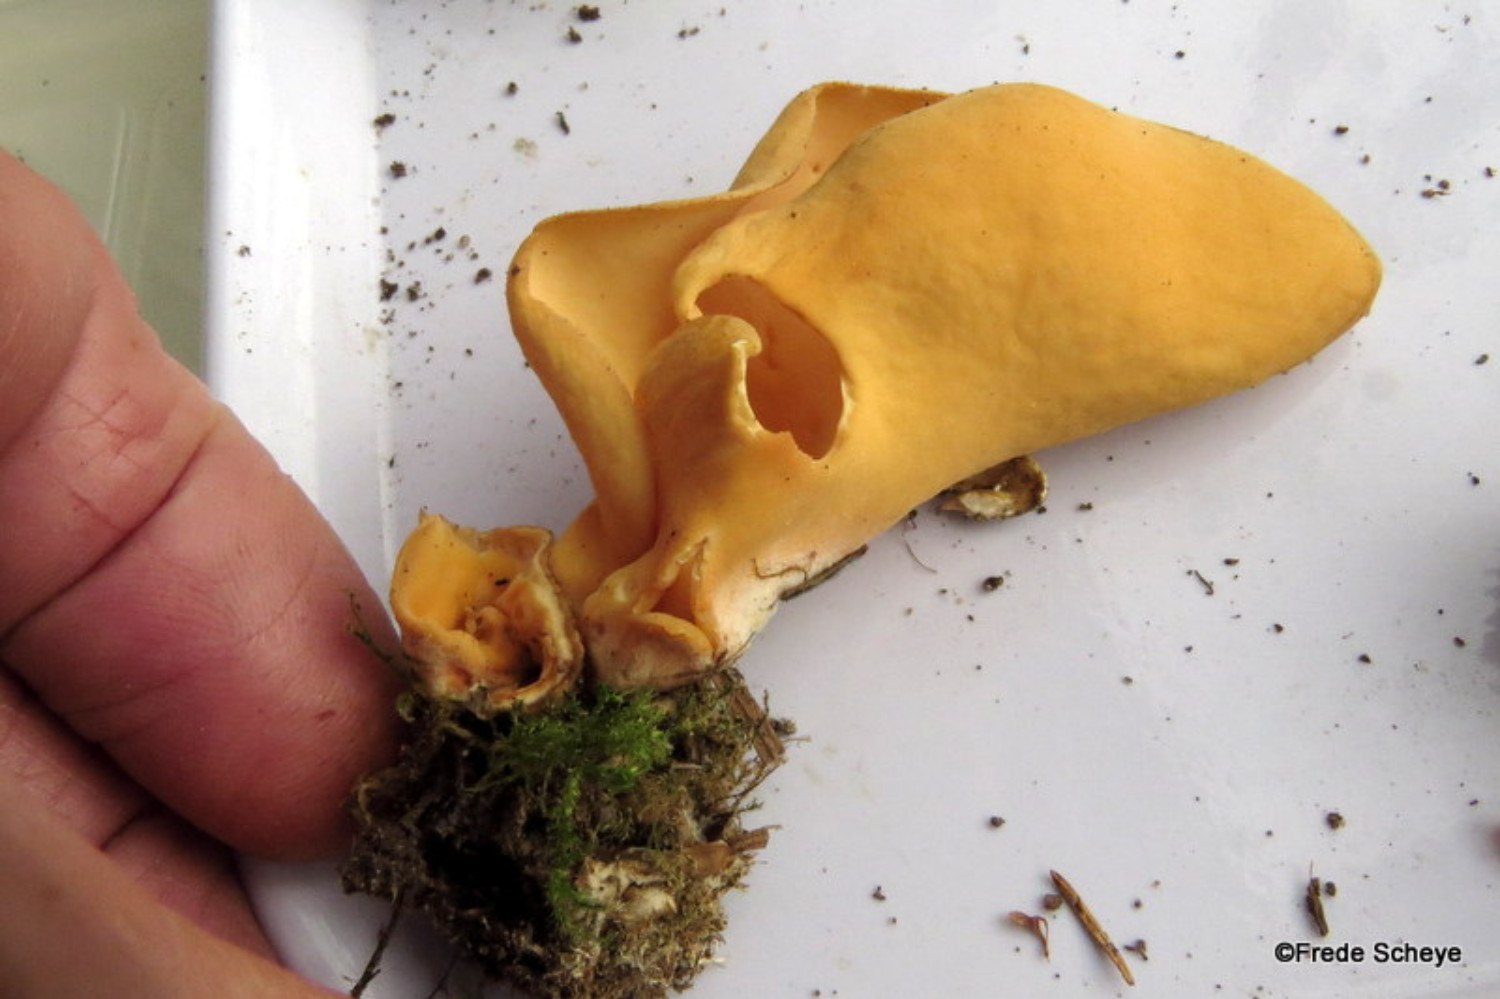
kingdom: Fungi
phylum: Ascomycota
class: Pezizomycetes
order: Pezizales
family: Otideaceae
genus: Otidea
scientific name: Otidea onotica
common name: æsel-ørebæger
